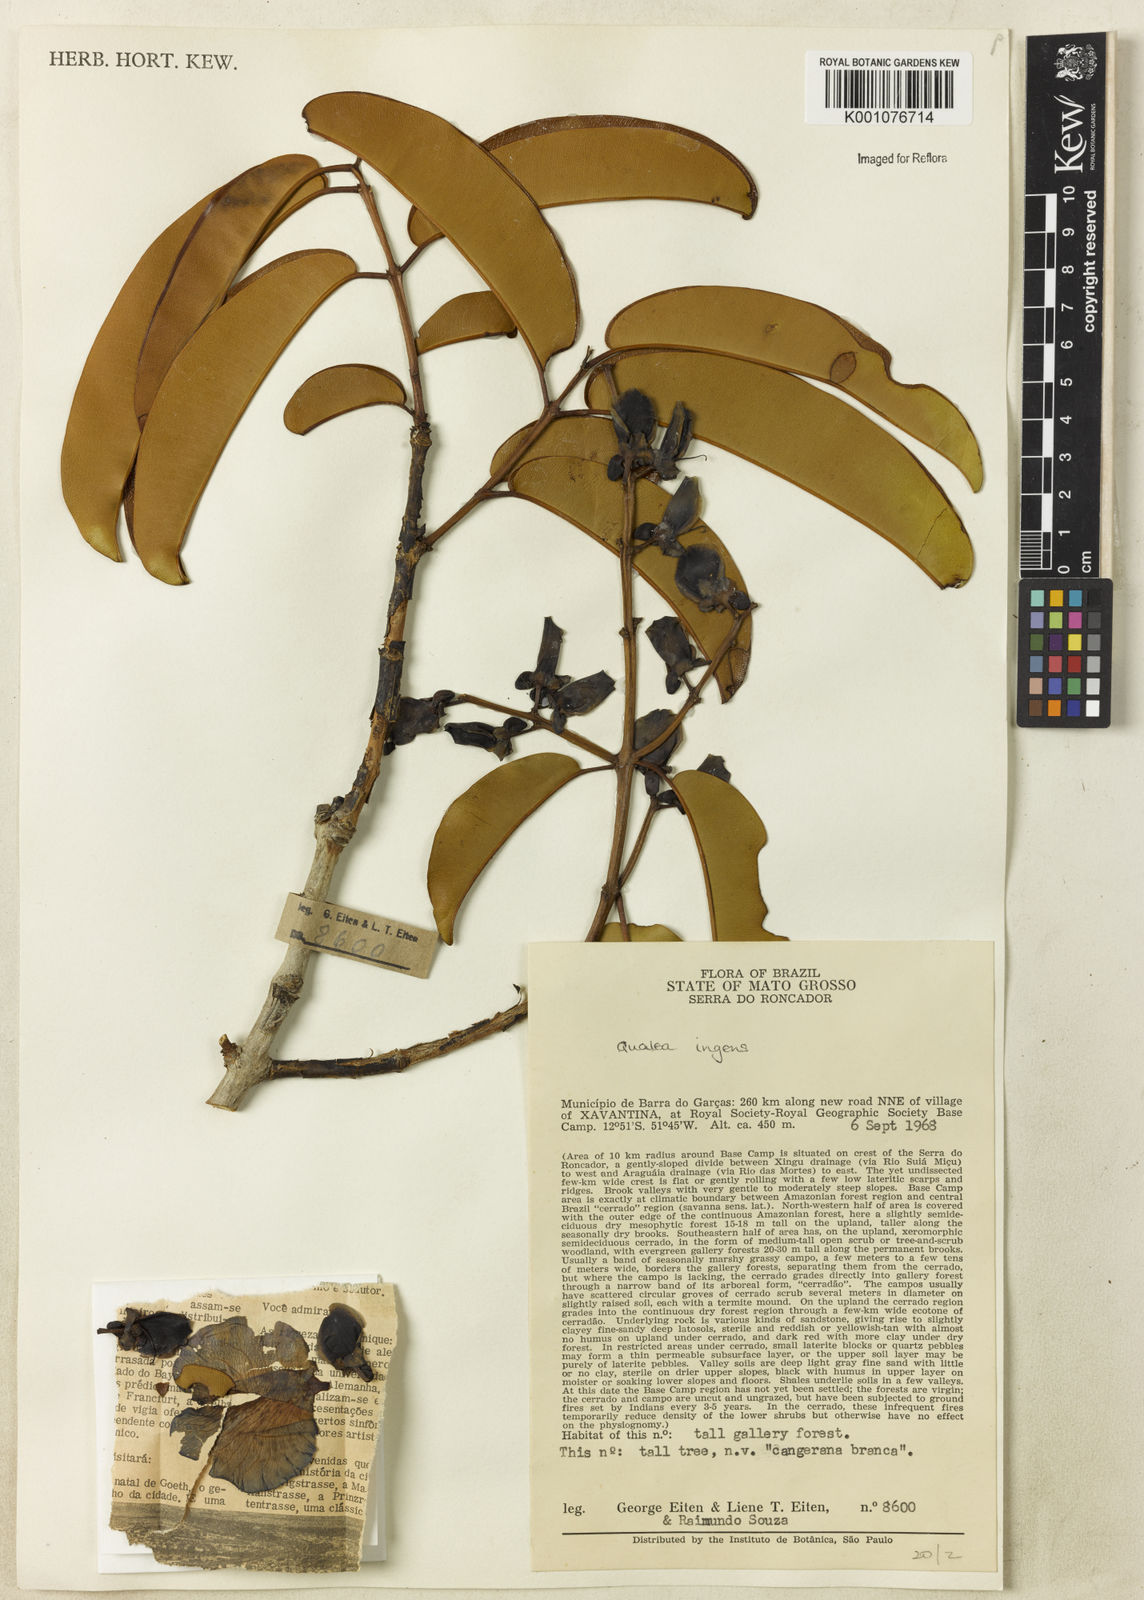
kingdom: Plantae
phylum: Tracheophyta
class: Magnoliopsida
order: Myrtales
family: Vochysiaceae
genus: Qualea
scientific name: Qualea ingens
